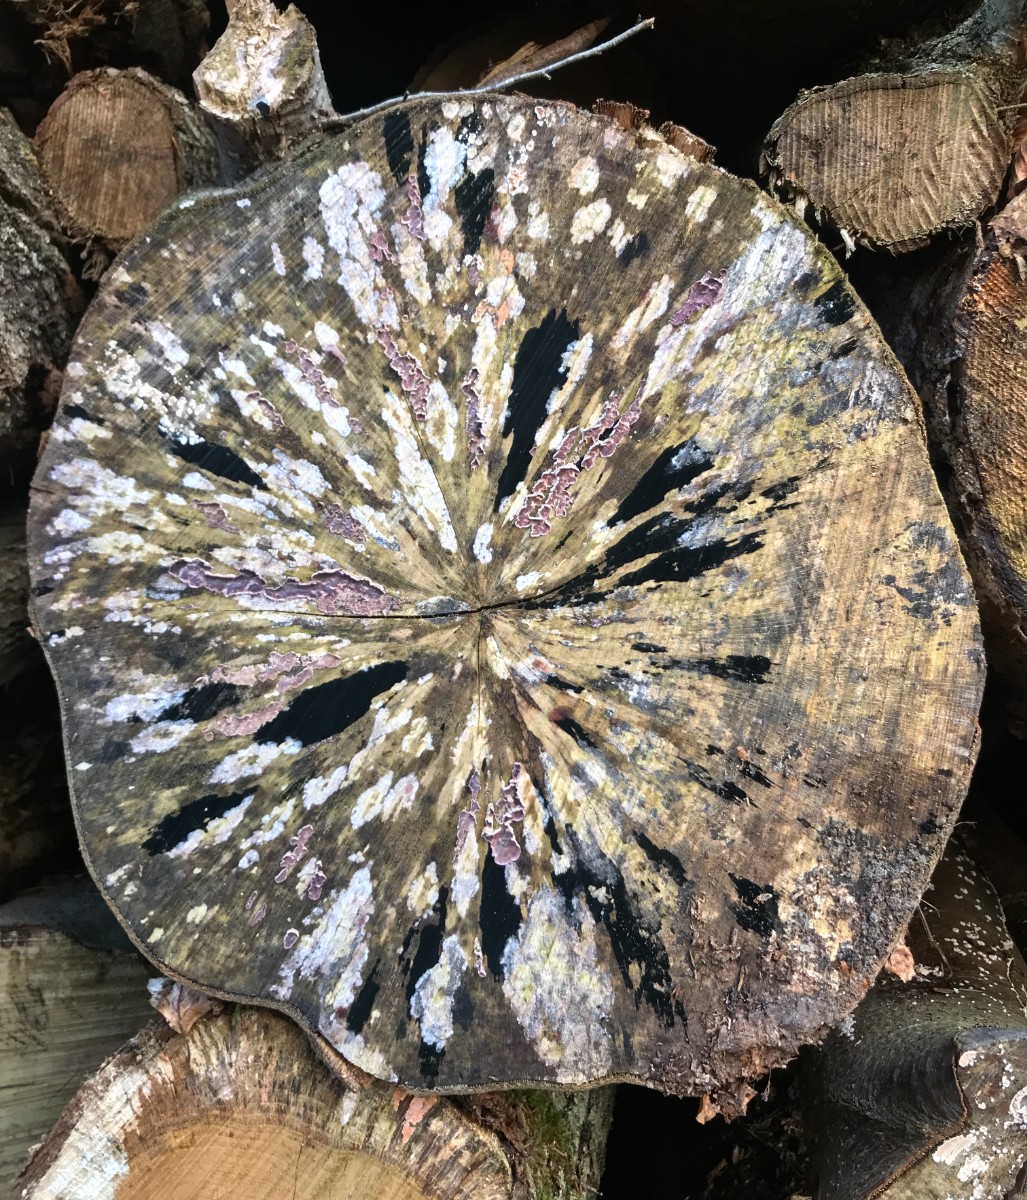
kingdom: Fungi
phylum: Ascomycota
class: Leotiomycetes
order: Helotiales
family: Helotiaceae
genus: Bispora
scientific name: Bispora pallescens
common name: måtte-snitskive
